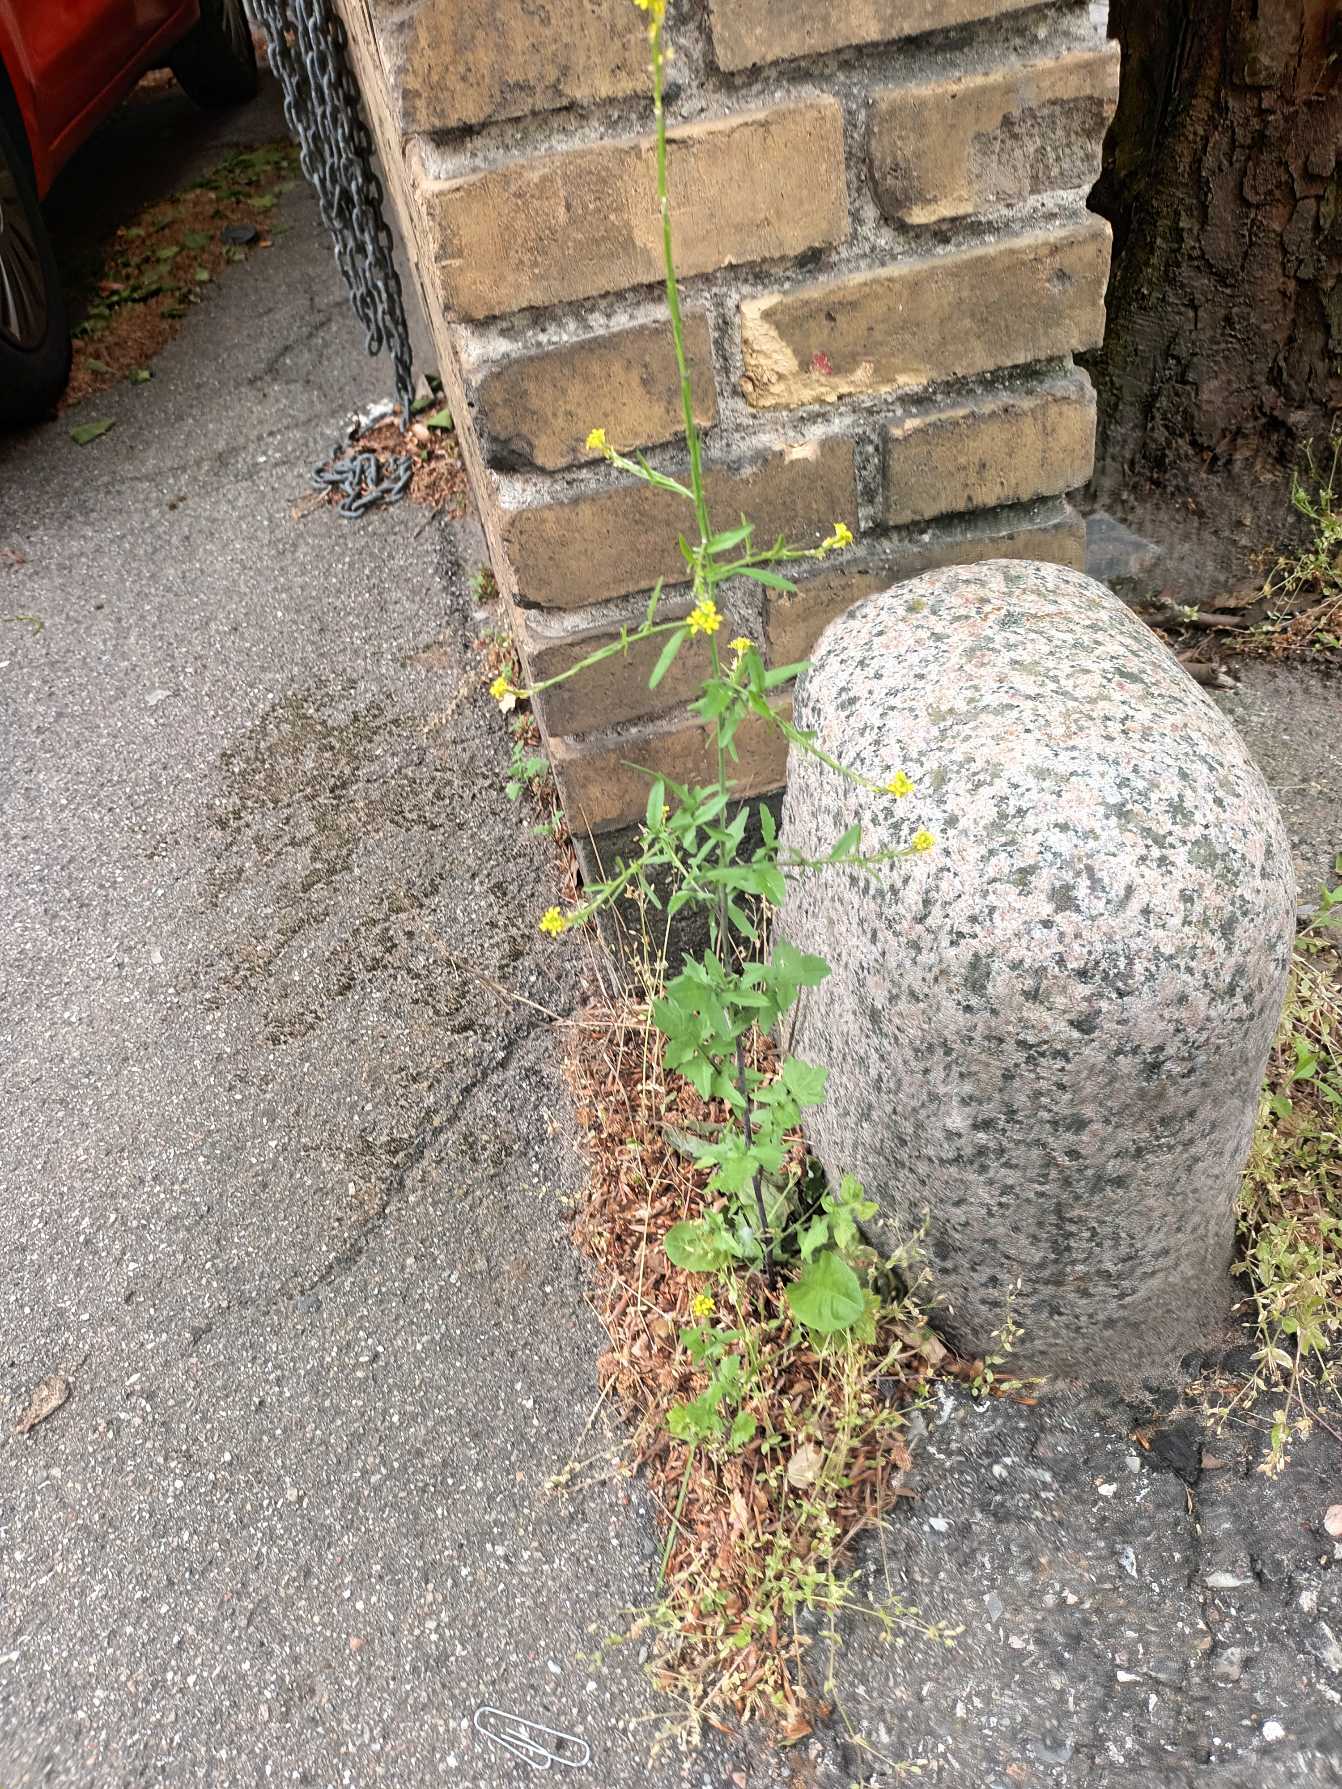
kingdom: Plantae
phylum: Tracheophyta
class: Magnoliopsida
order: Brassicales
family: Brassicaceae
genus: Sisymbrium
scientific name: Sisymbrium officinale
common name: Rank vejsennep
